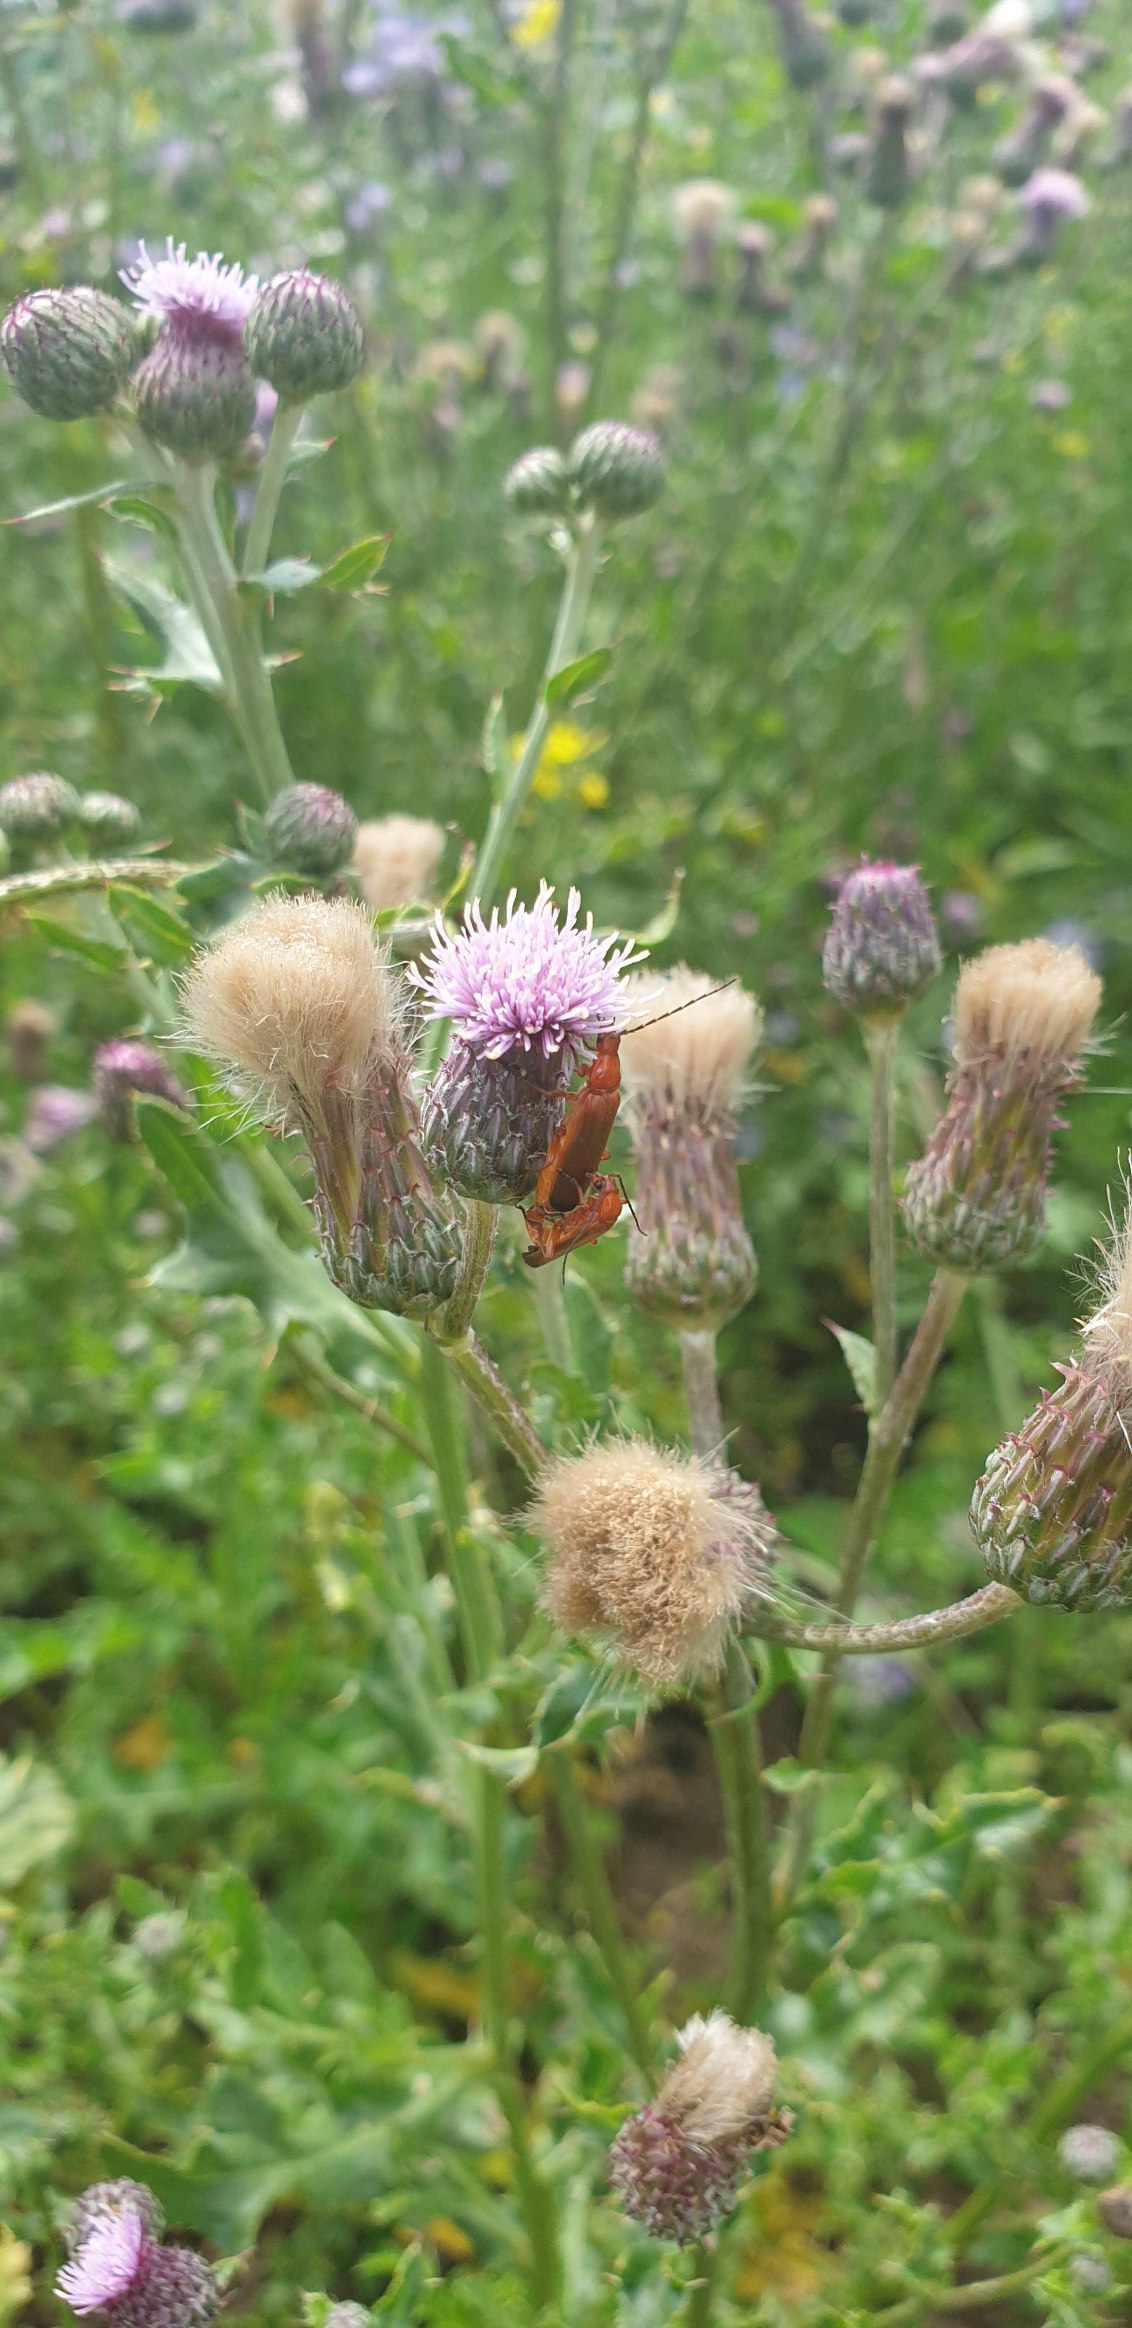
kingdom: Animalia
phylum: Arthropoda
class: Insecta
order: Coleoptera
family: Cantharidae
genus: Rhagonycha
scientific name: Rhagonycha fulva
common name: Præstebille
